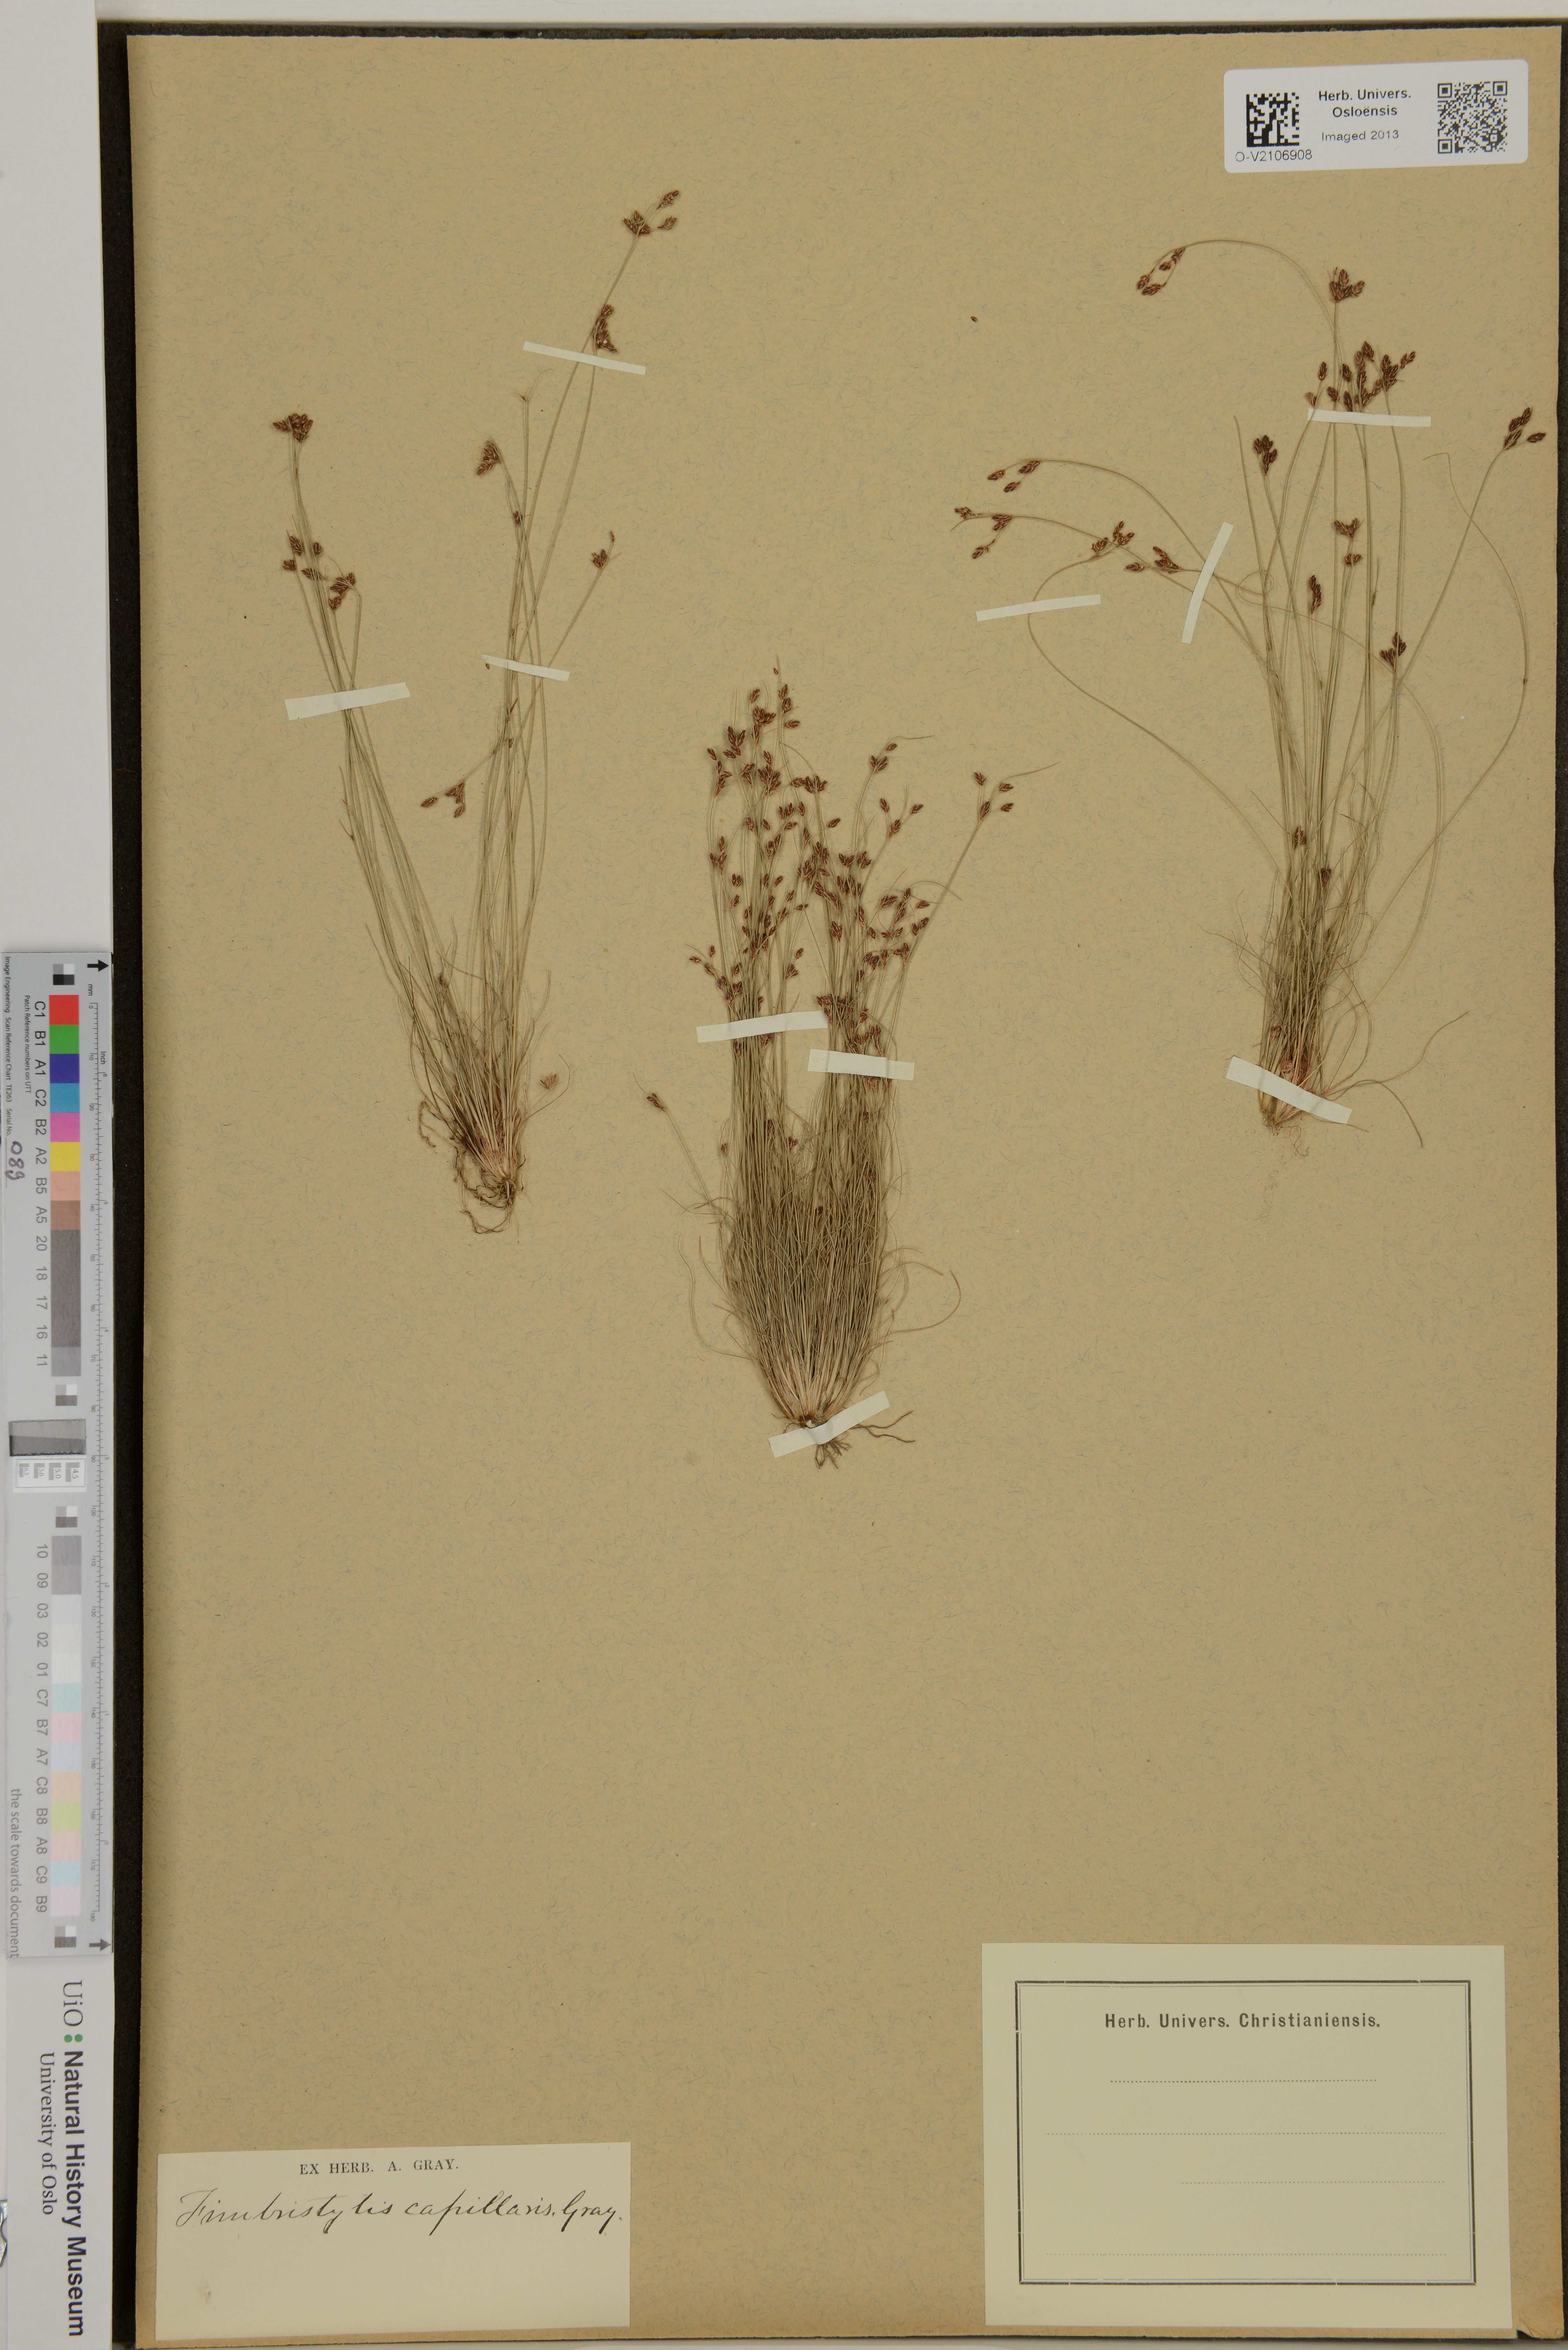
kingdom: Plantae
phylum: Tracheophyta
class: Liliopsida
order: Poales
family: Cyperaceae
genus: Bulbostylis
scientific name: Bulbostylis capillaris
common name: Densetuft hairsedge
